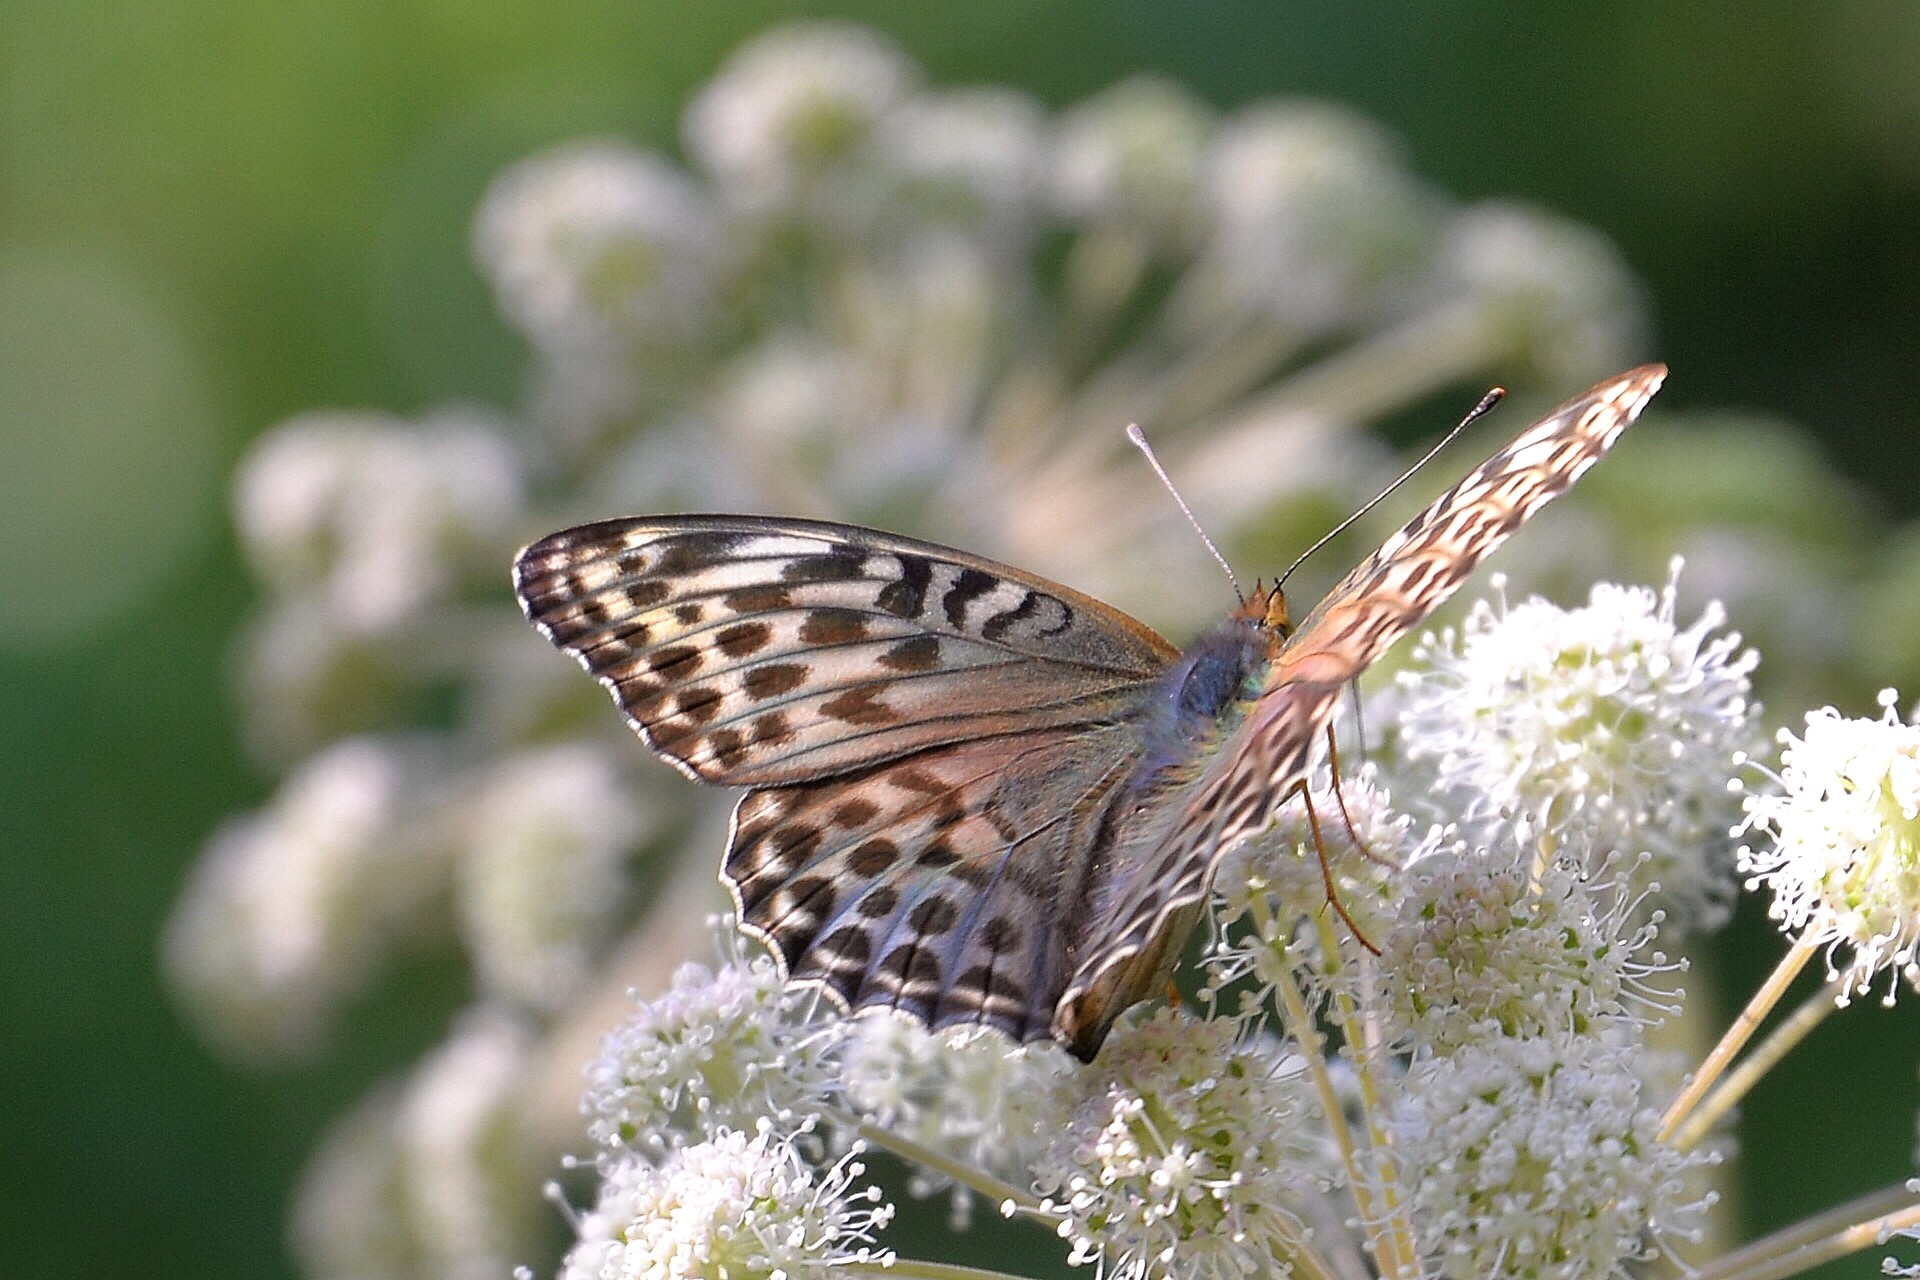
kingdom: Animalia
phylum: Arthropoda
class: Insecta
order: Lepidoptera
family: Nymphalidae
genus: Argynnis
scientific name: Argynnis paphia
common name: Silver-washed fritillary
